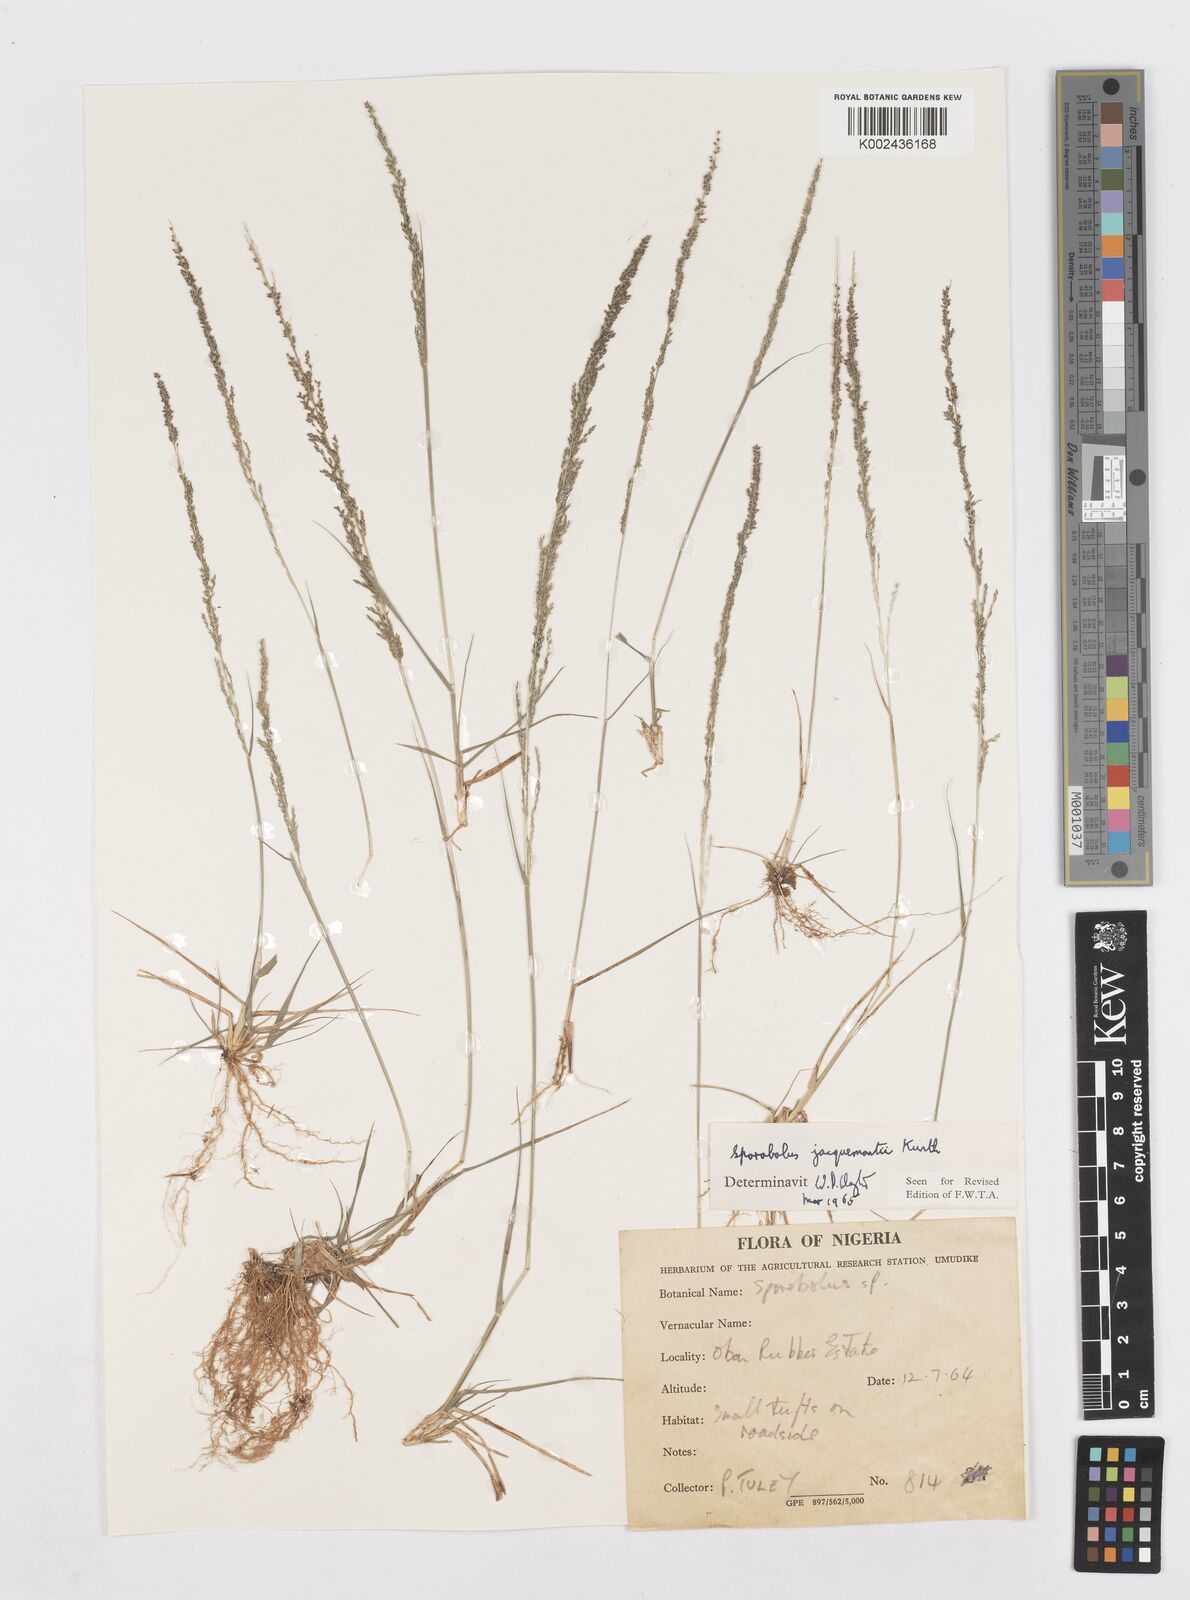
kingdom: Plantae
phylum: Tracheophyta
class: Liliopsida
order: Poales
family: Poaceae
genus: Sporobolus
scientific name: Sporobolus pyramidalis
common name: West indian dropseed
